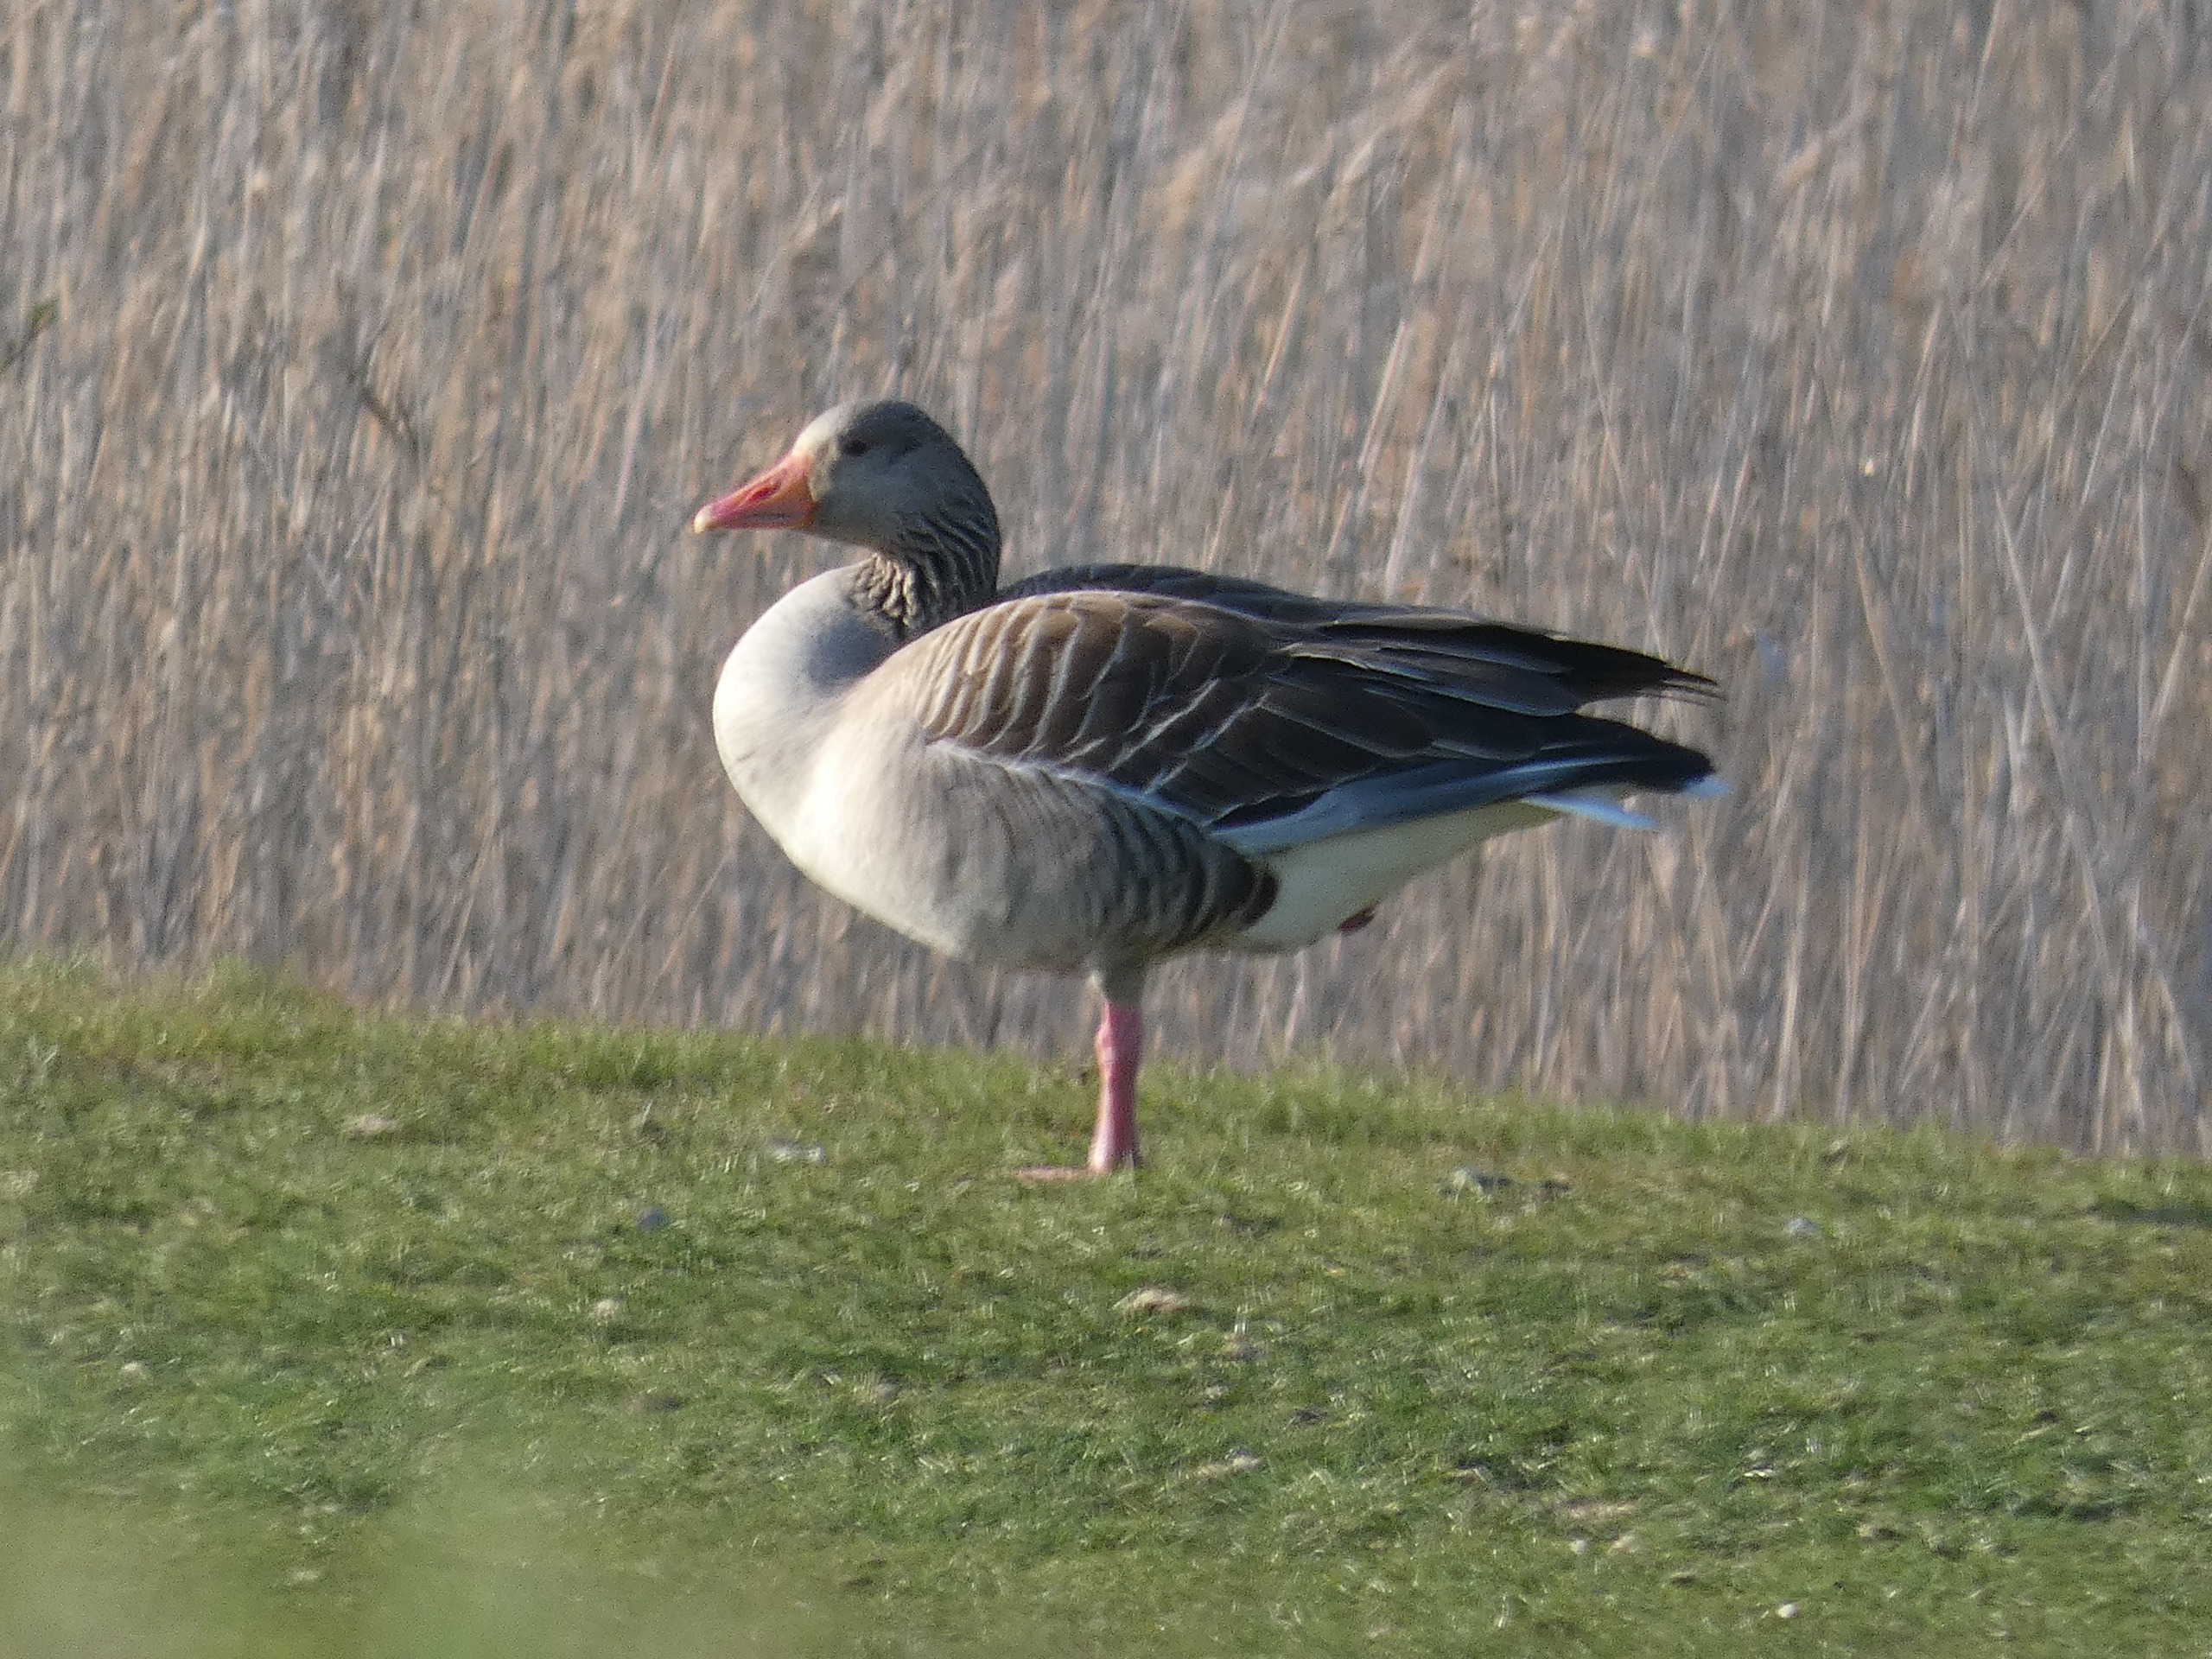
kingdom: Animalia
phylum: Chordata
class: Aves
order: Anseriformes
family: Anatidae
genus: Anser
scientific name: Anser anser
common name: Grågås
